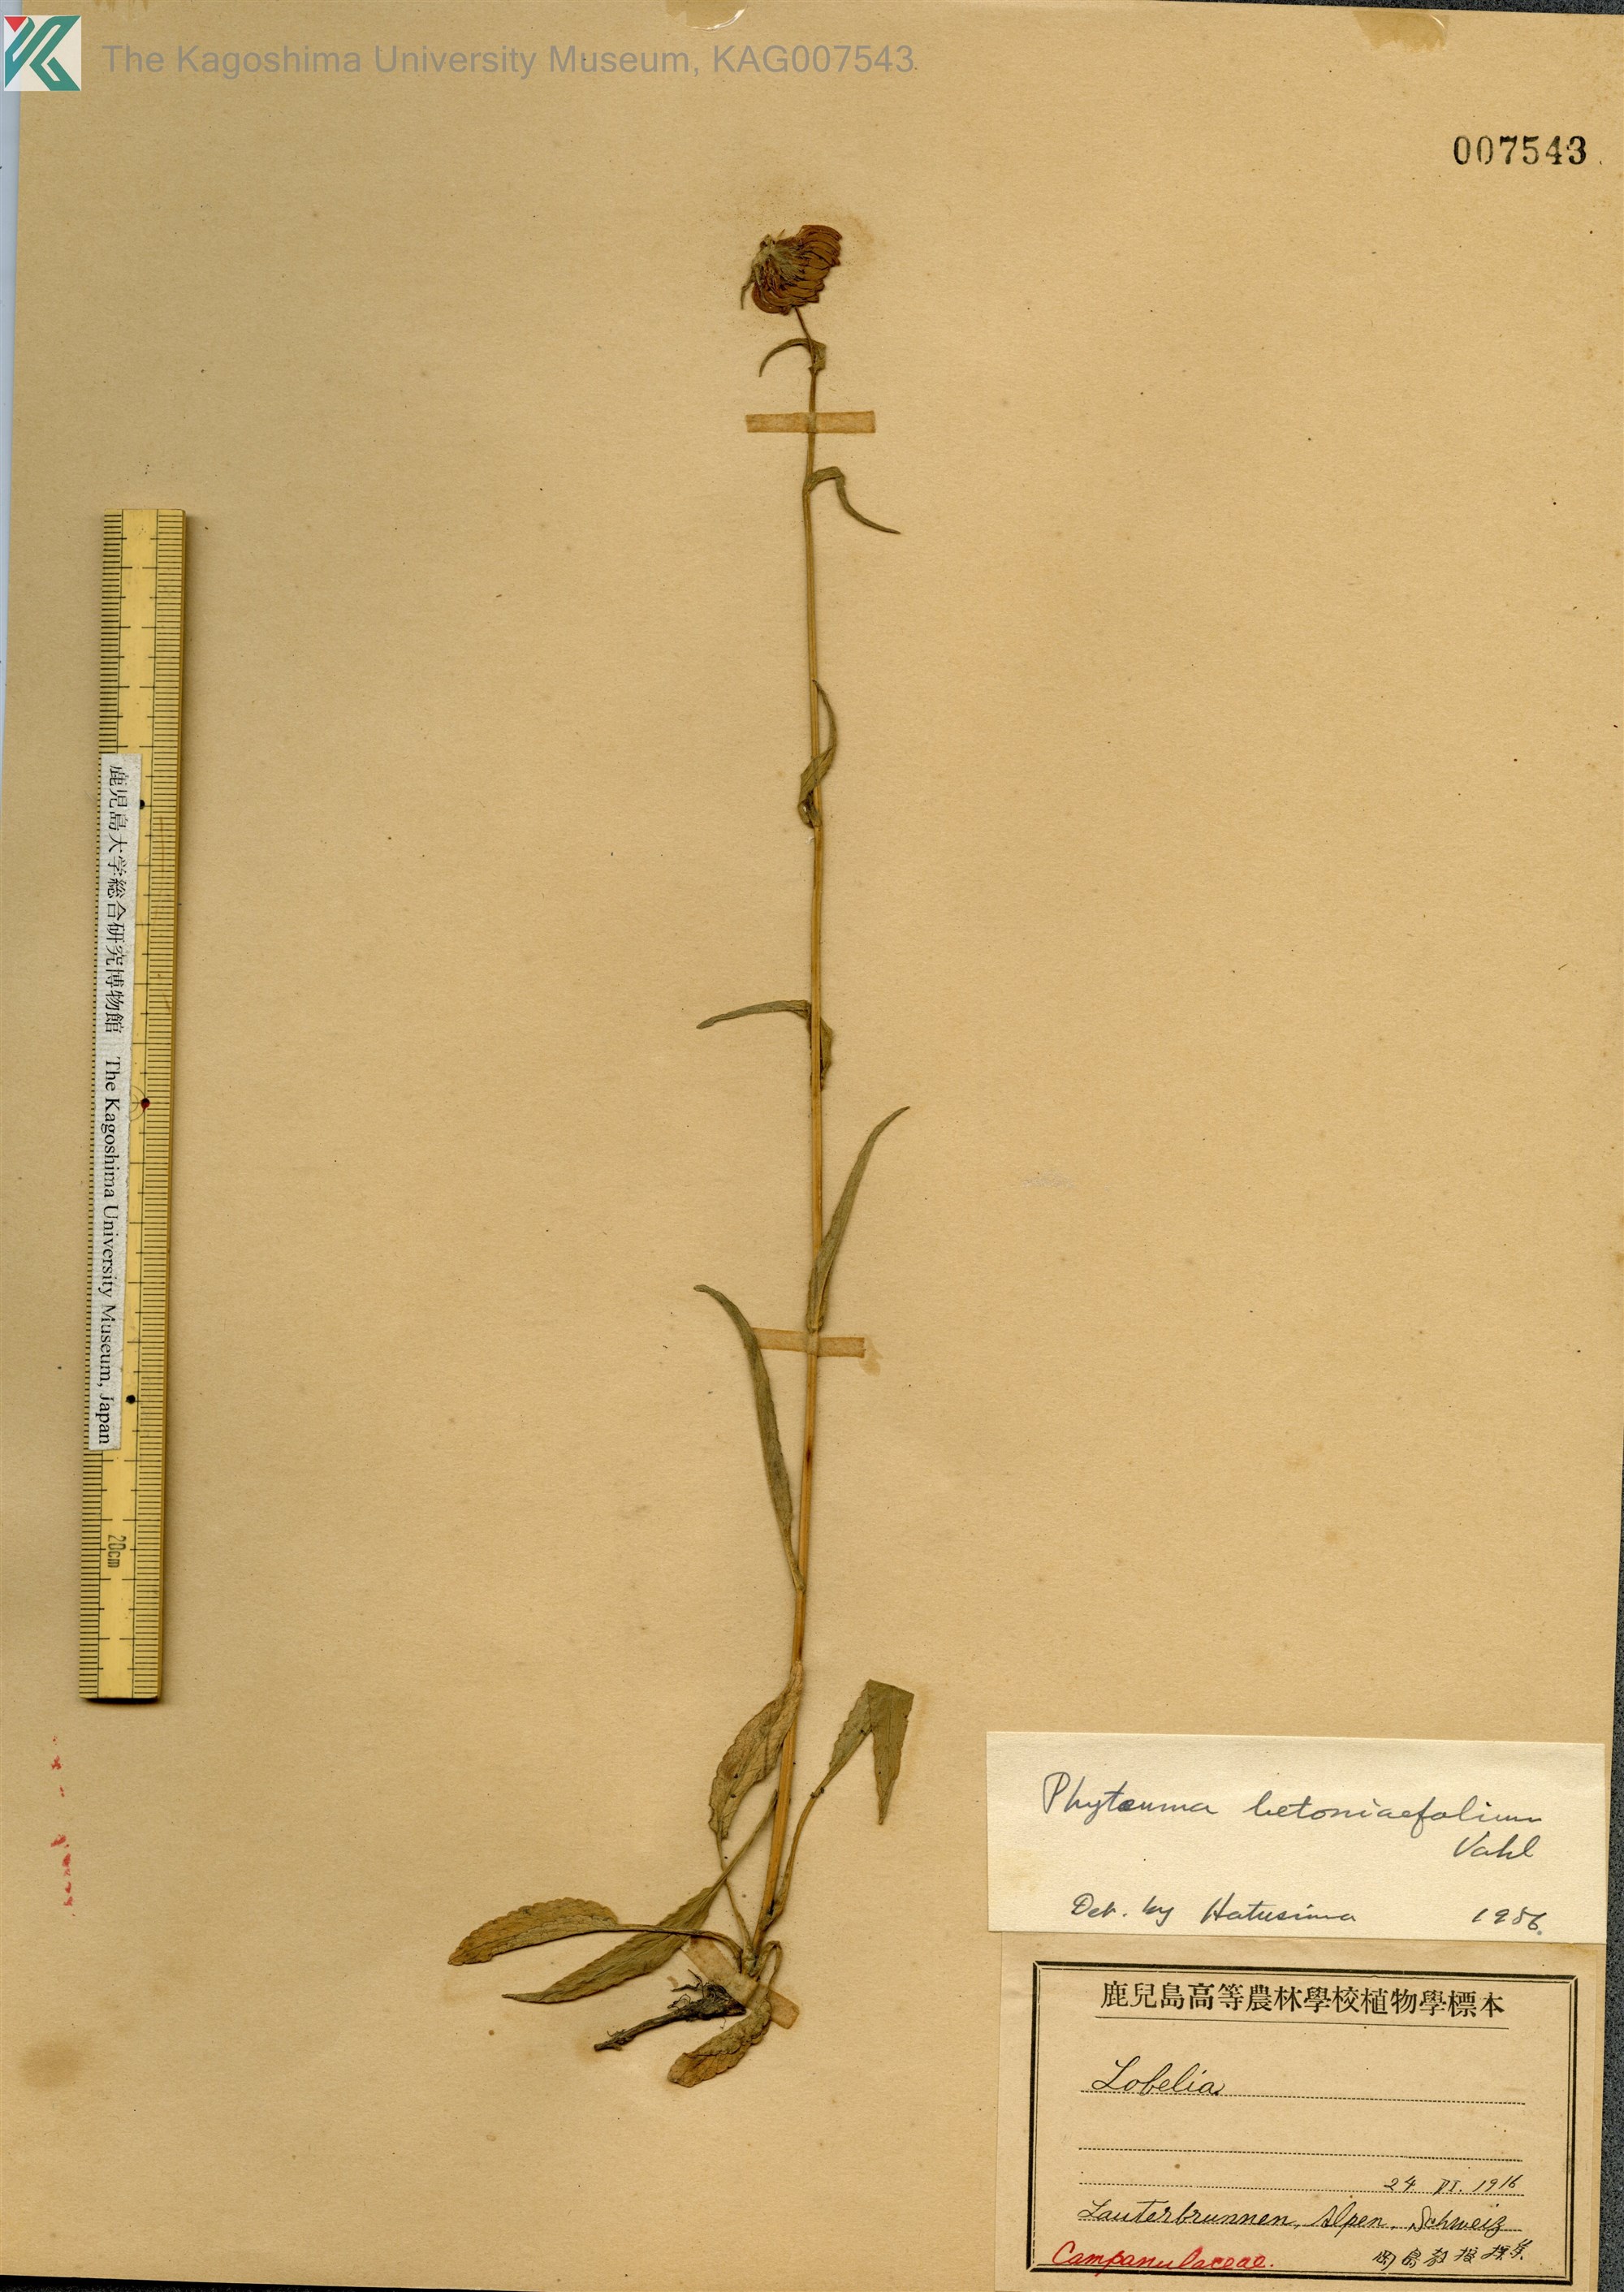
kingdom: Plantae
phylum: Tracheophyta
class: Magnoliopsida
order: Asterales
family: Campanulaceae
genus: Phyteuma
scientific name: Phyteuma betonicifolium
